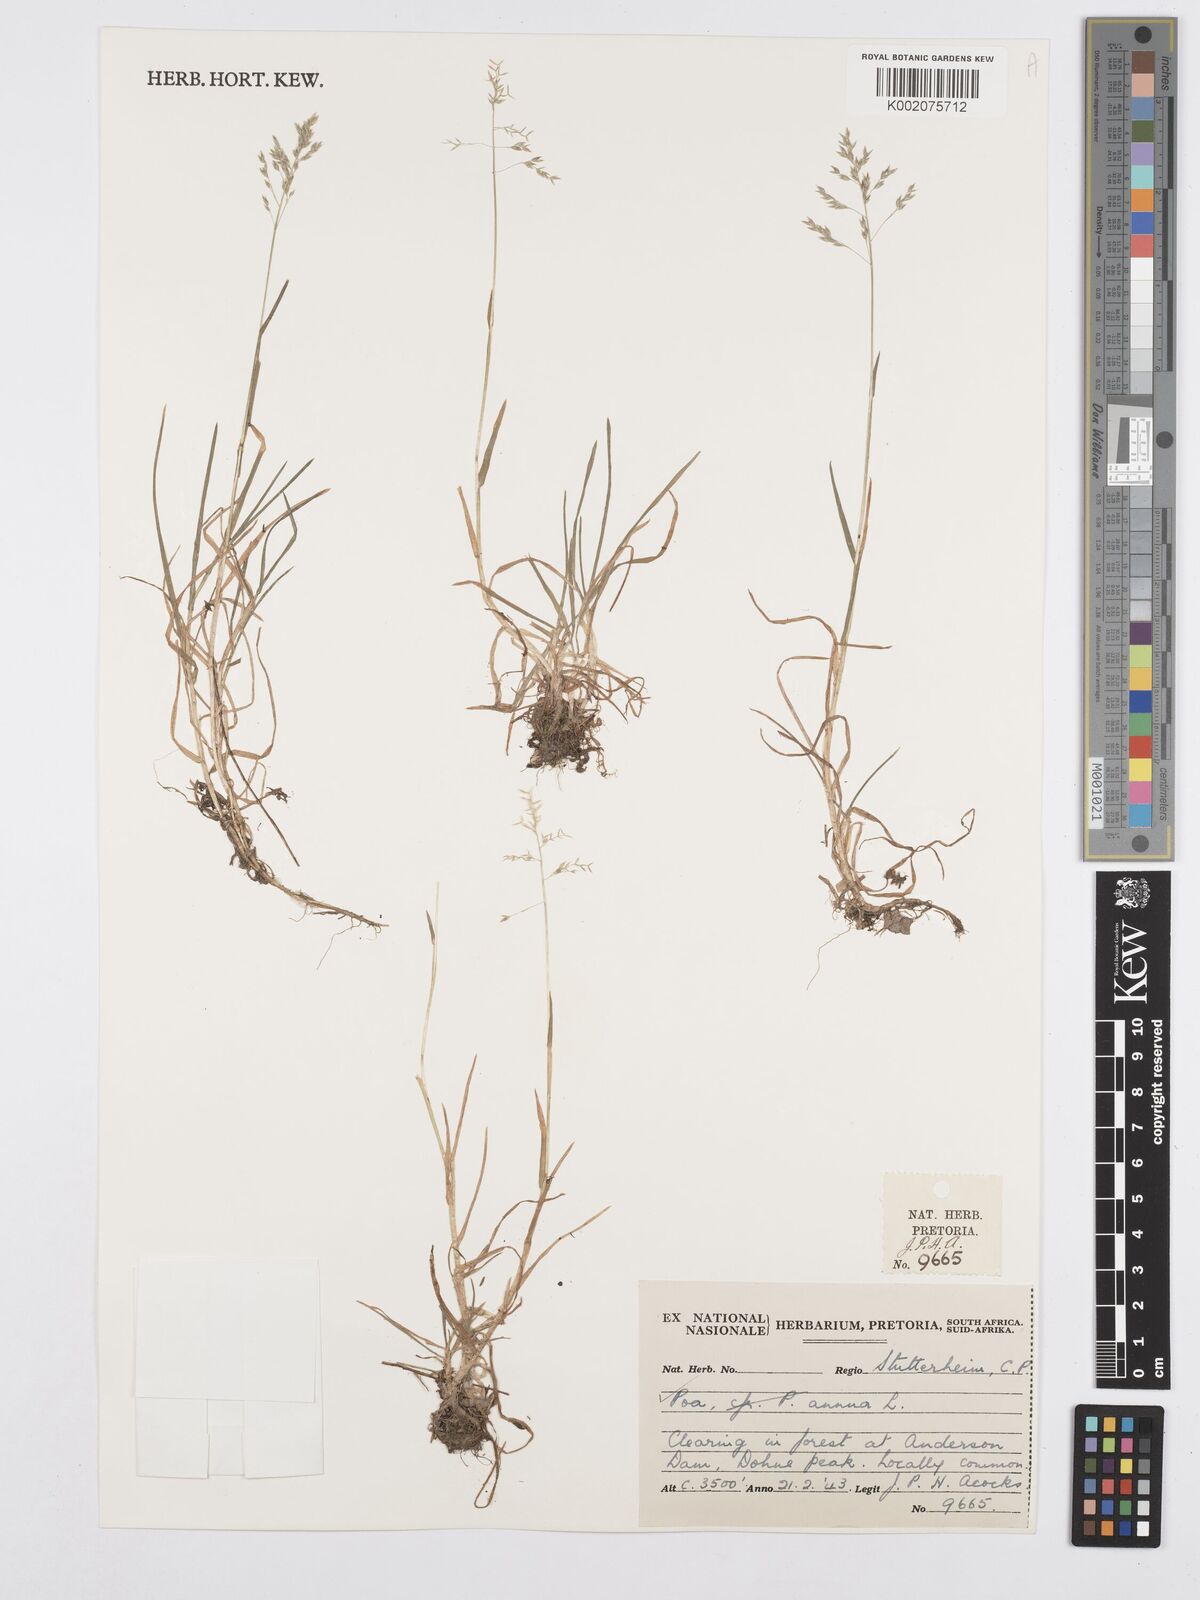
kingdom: Plantae
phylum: Tracheophyta
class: Liliopsida
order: Poales
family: Poaceae
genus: Poa
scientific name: Poa annua
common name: Annual bluegrass
